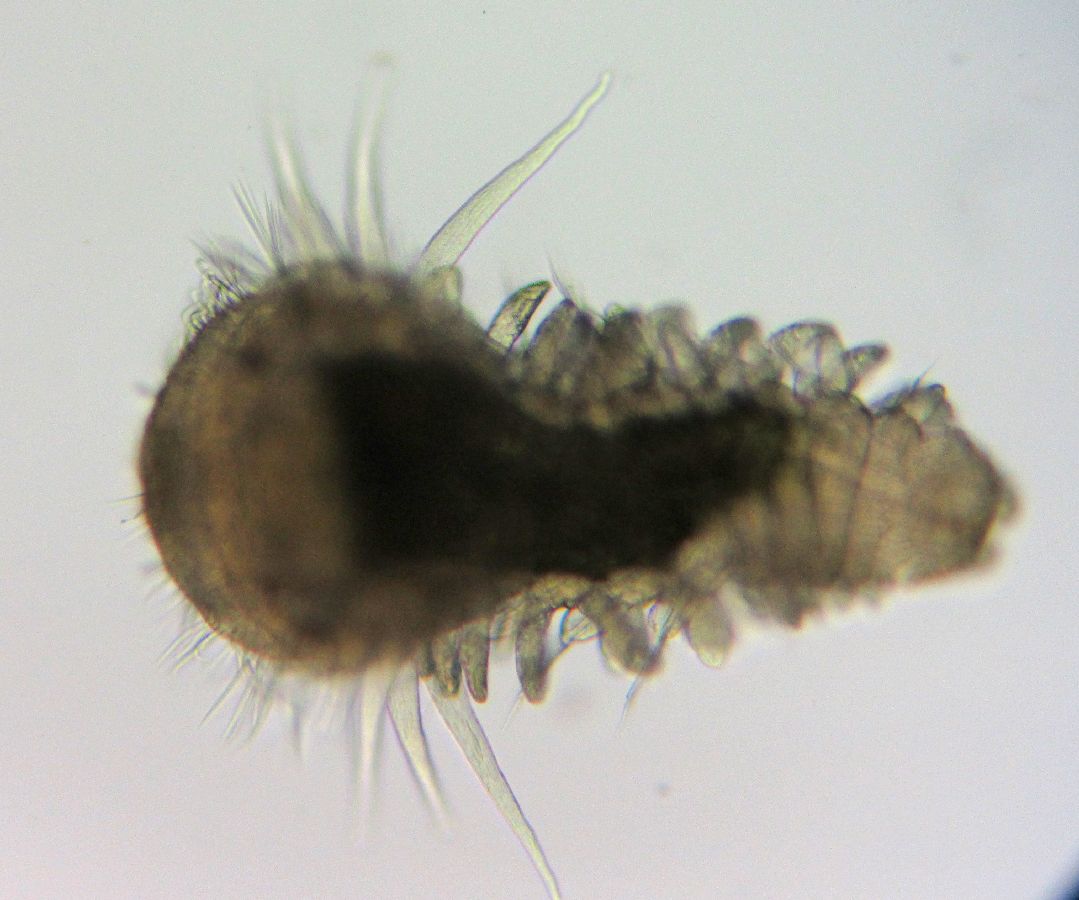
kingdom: Animalia
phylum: Annelida
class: Polychaeta
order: Phyllodocida
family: Phyllodocidae
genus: Phyllodoce
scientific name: Phyllodoce maculata
